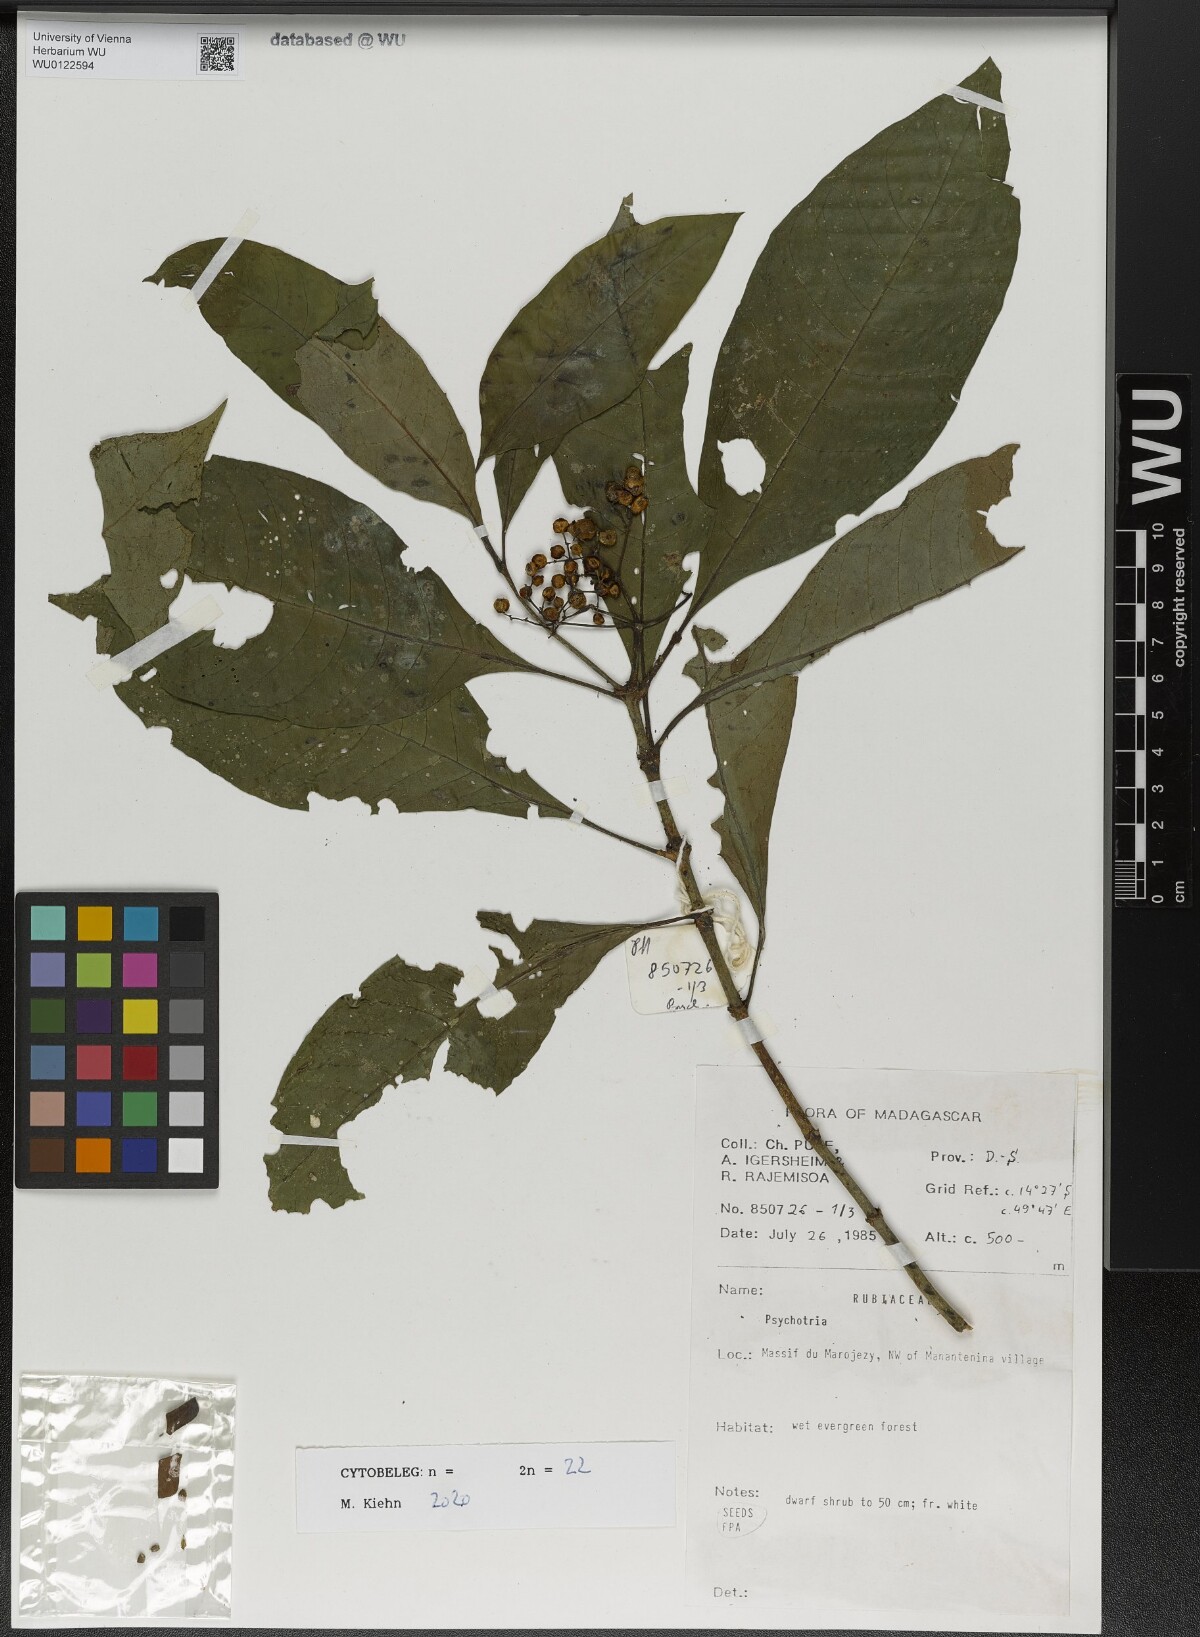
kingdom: Plantae
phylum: Tracheophyta
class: Magnoliopsida
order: Gentianales
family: Rubiaceae
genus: Psychotria
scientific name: Psychotria perrieri
